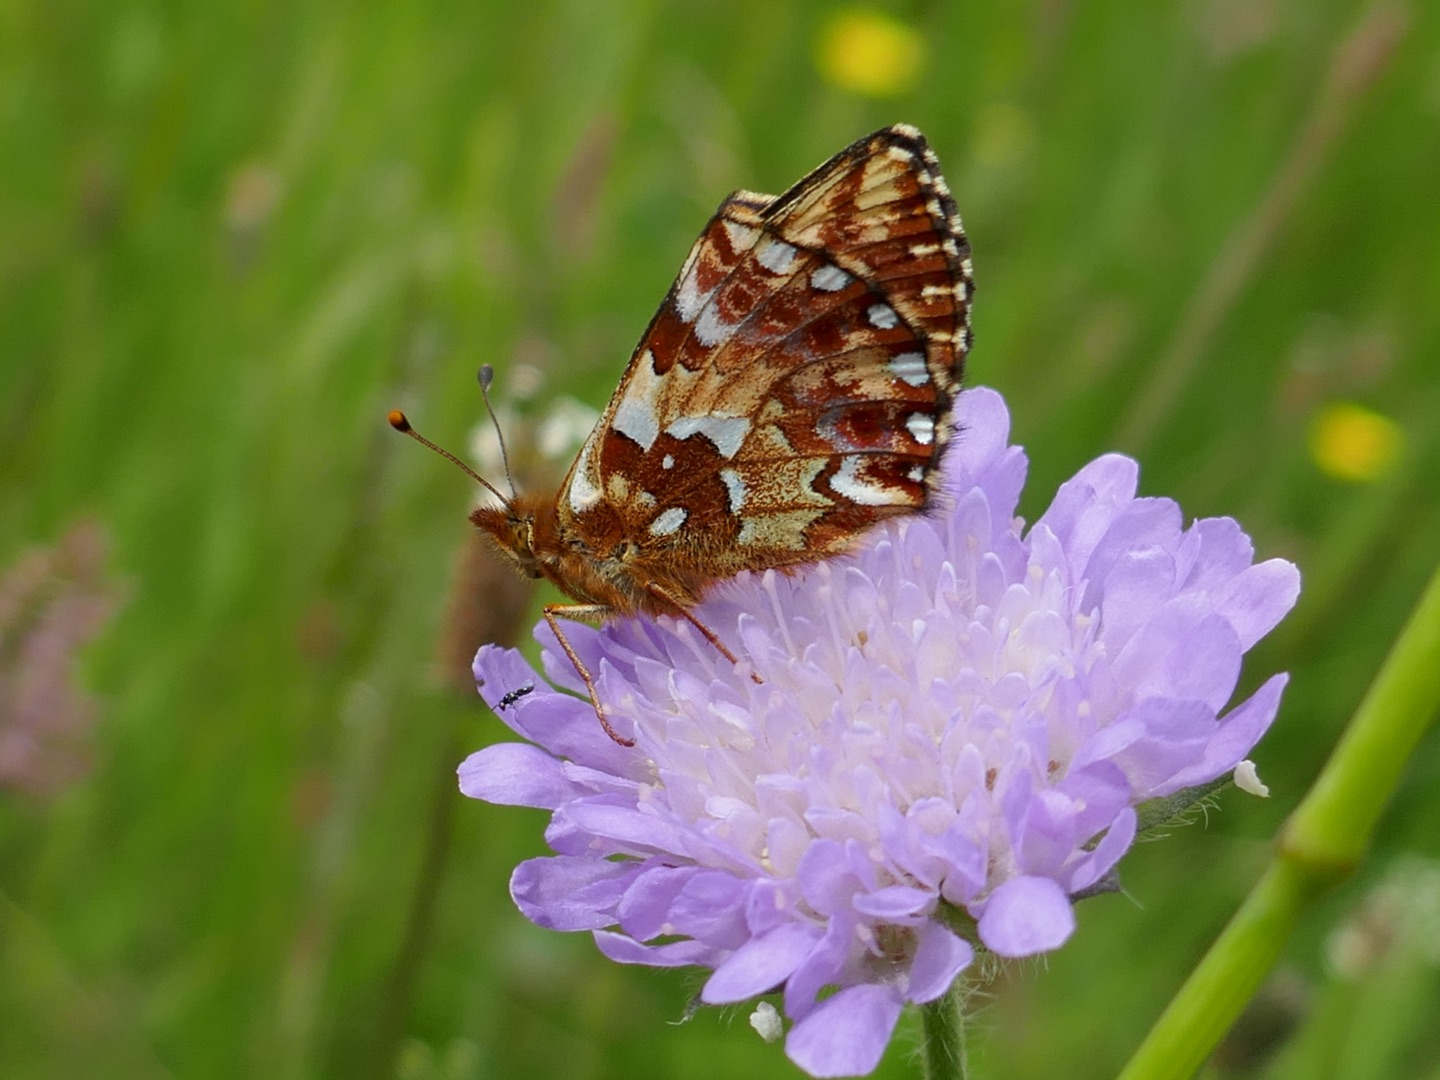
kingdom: Animalia
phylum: Arthropoda
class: Insecta
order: Lepidoptera
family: Nymphalidae
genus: Boloria
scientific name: Boloria aquilonaris
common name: Moseperlemorsommerfugl
